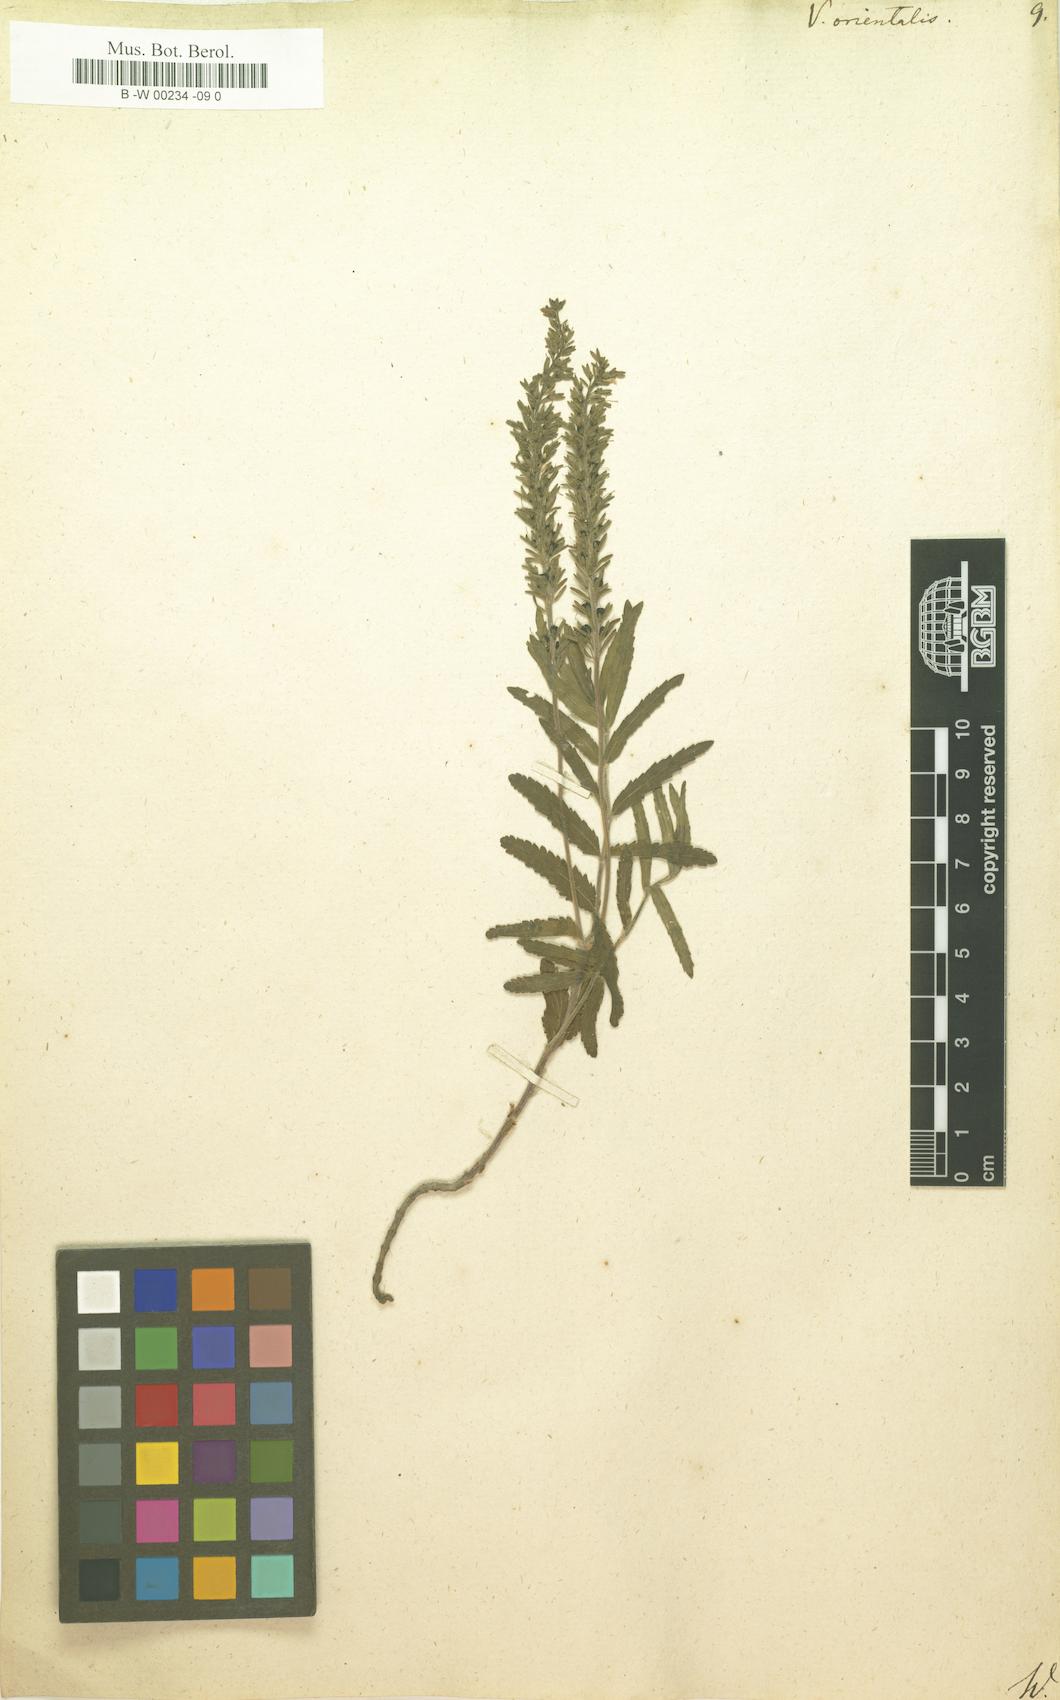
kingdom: Plantae
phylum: Tracheophyta
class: Magnoliopsida
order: Lamiales
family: Plantaginaceae
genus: Veronica
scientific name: Veronica orientalis
